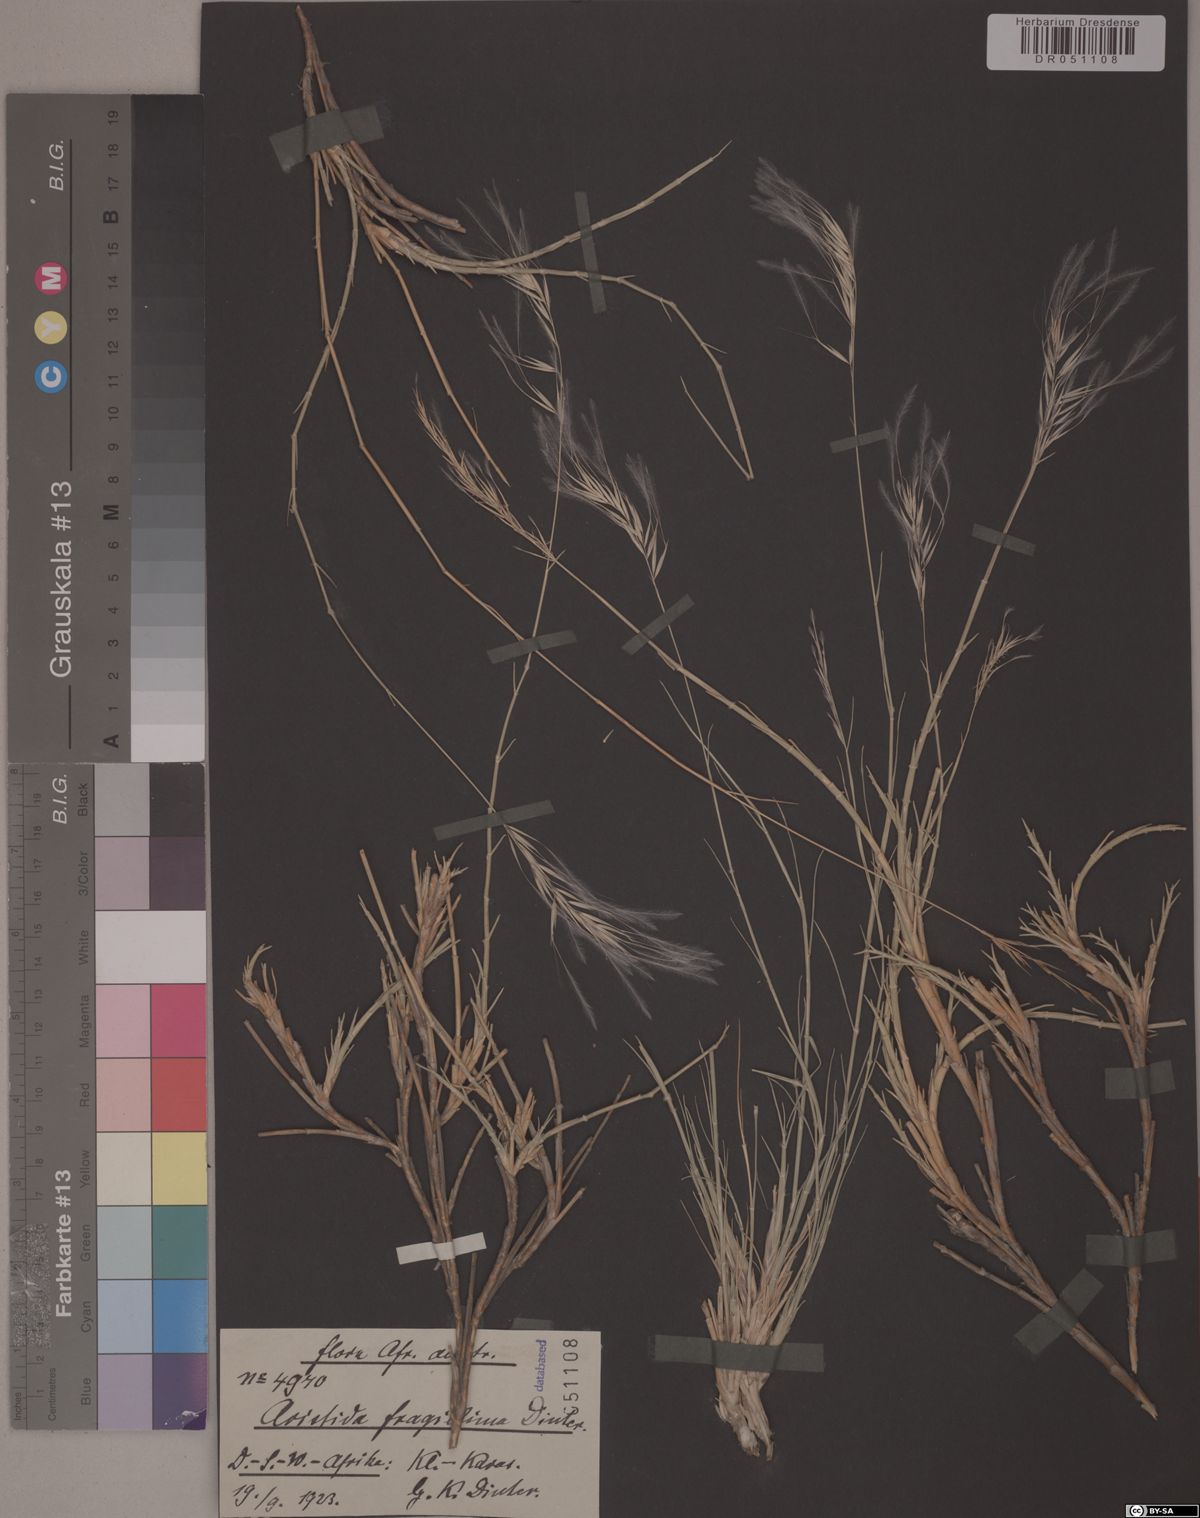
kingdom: Plantae
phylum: Tracheophyta
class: Liliopsida
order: Poales
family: Poaceae
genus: Aristida
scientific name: Aristida fragillina
